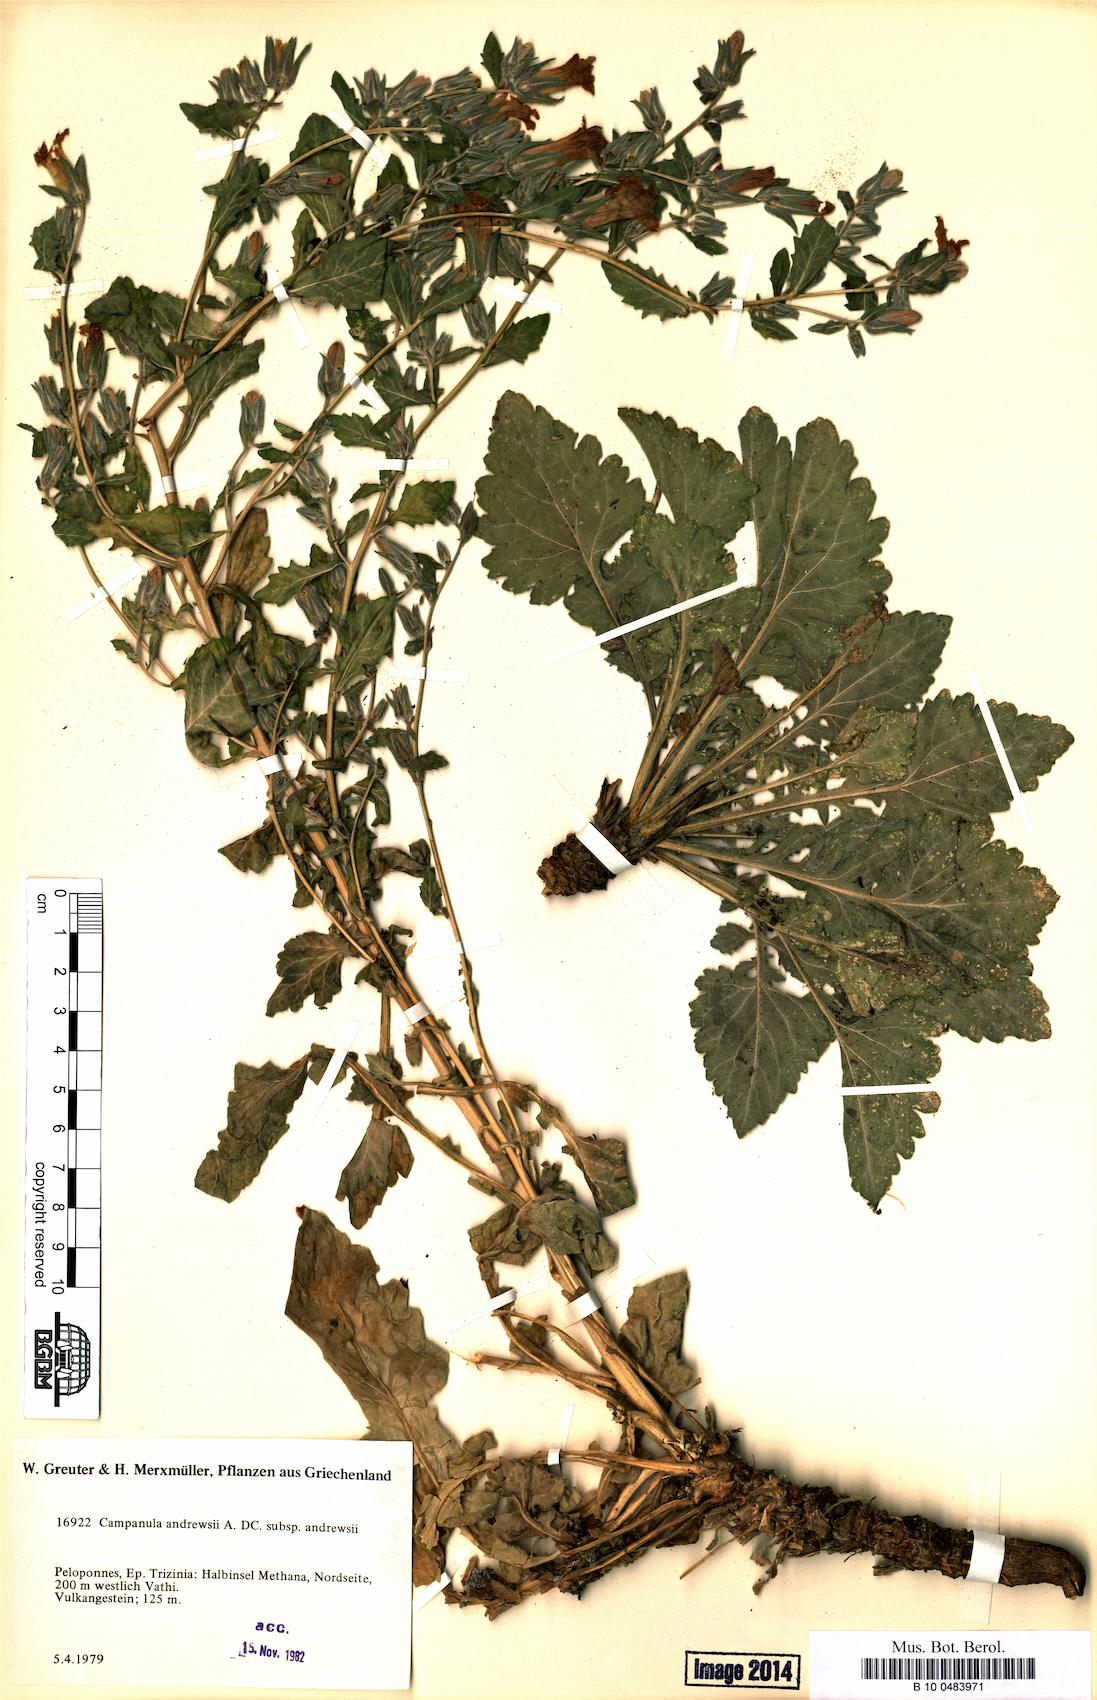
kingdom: Plantae
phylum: Tracheophyta
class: Magnoliopsida
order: Asterales
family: Campanulaceae
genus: Campanula
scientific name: Campanula andrewsii
